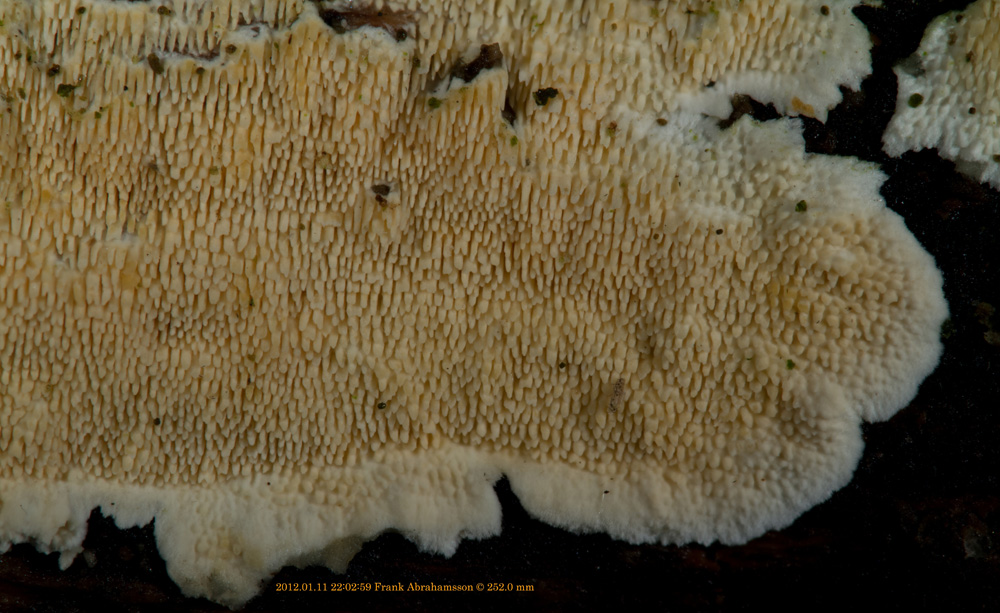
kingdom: Fungi
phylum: Basidiomycota
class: Agaricomycetes
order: Polyporales
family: Steccherinaceae
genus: Steccherinum
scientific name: Steccherinum ochraceum
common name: almindelig skønpig
